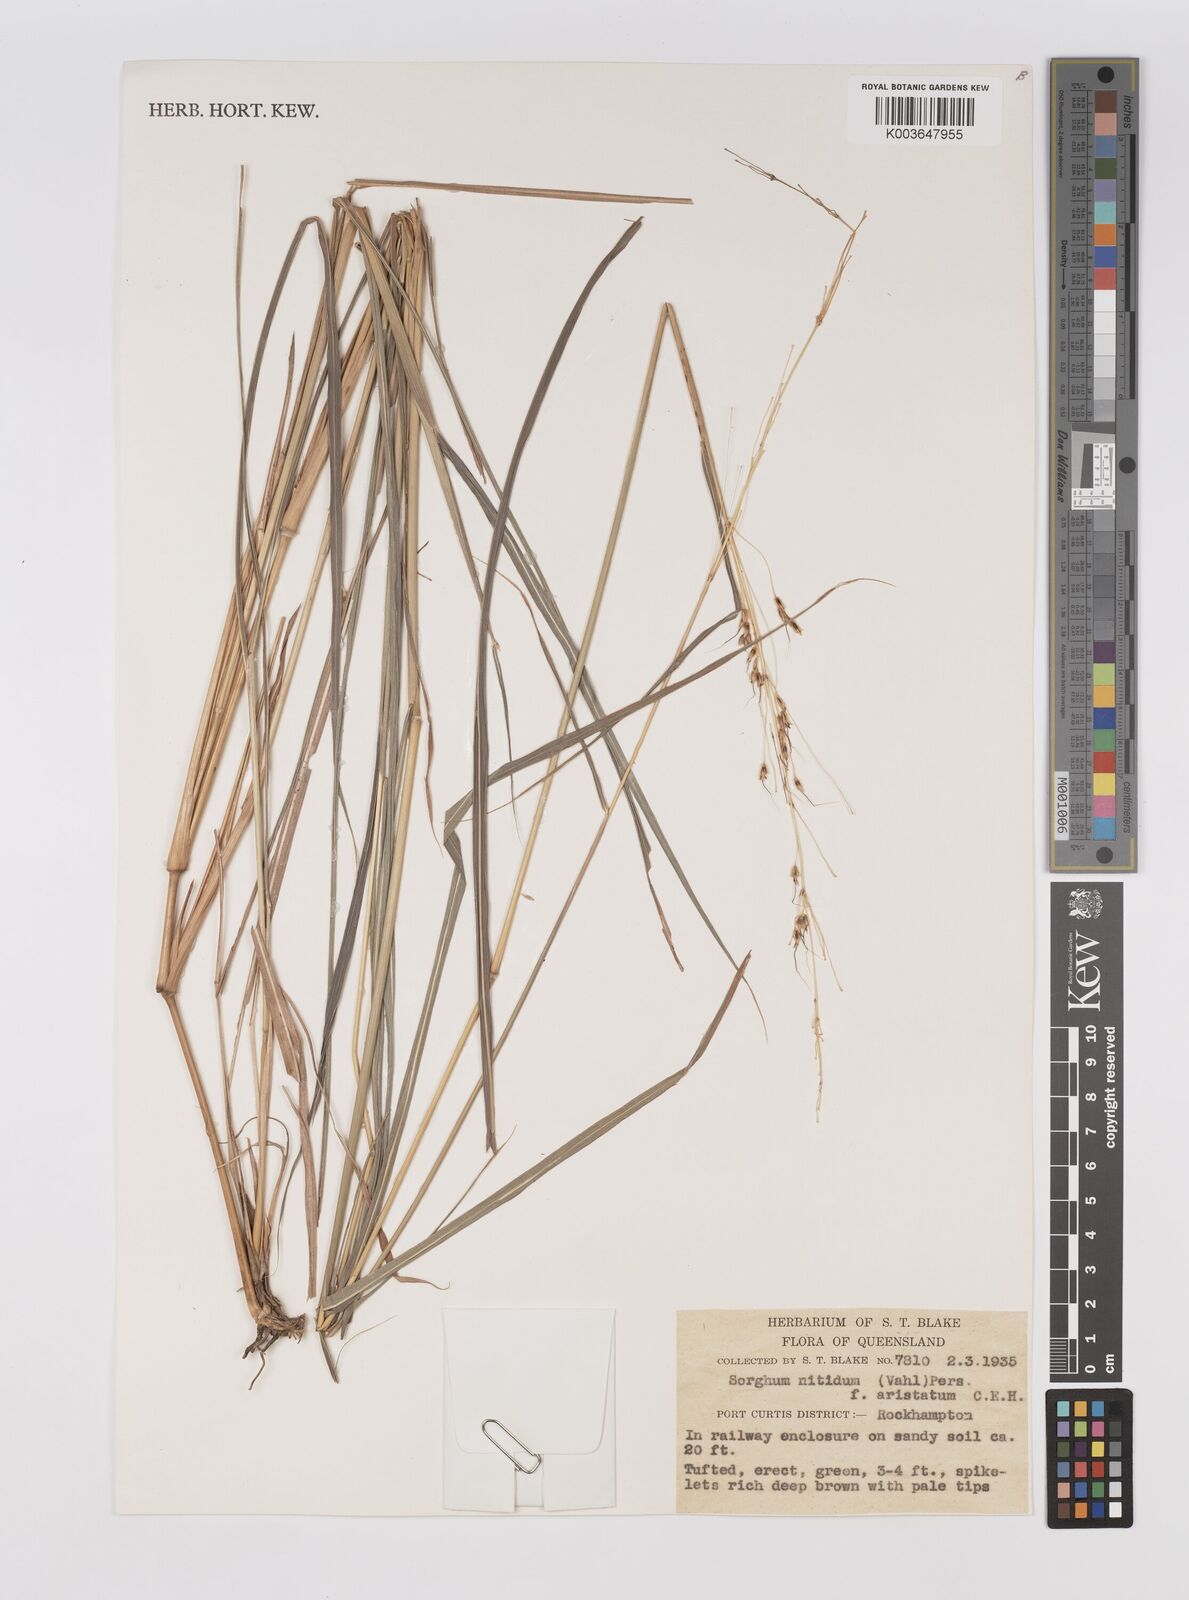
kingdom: Plantae
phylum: Tracheophyta
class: Liliopsida
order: Poales
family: Poaceae
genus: Sorghum
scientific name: Sorghum nitidum
